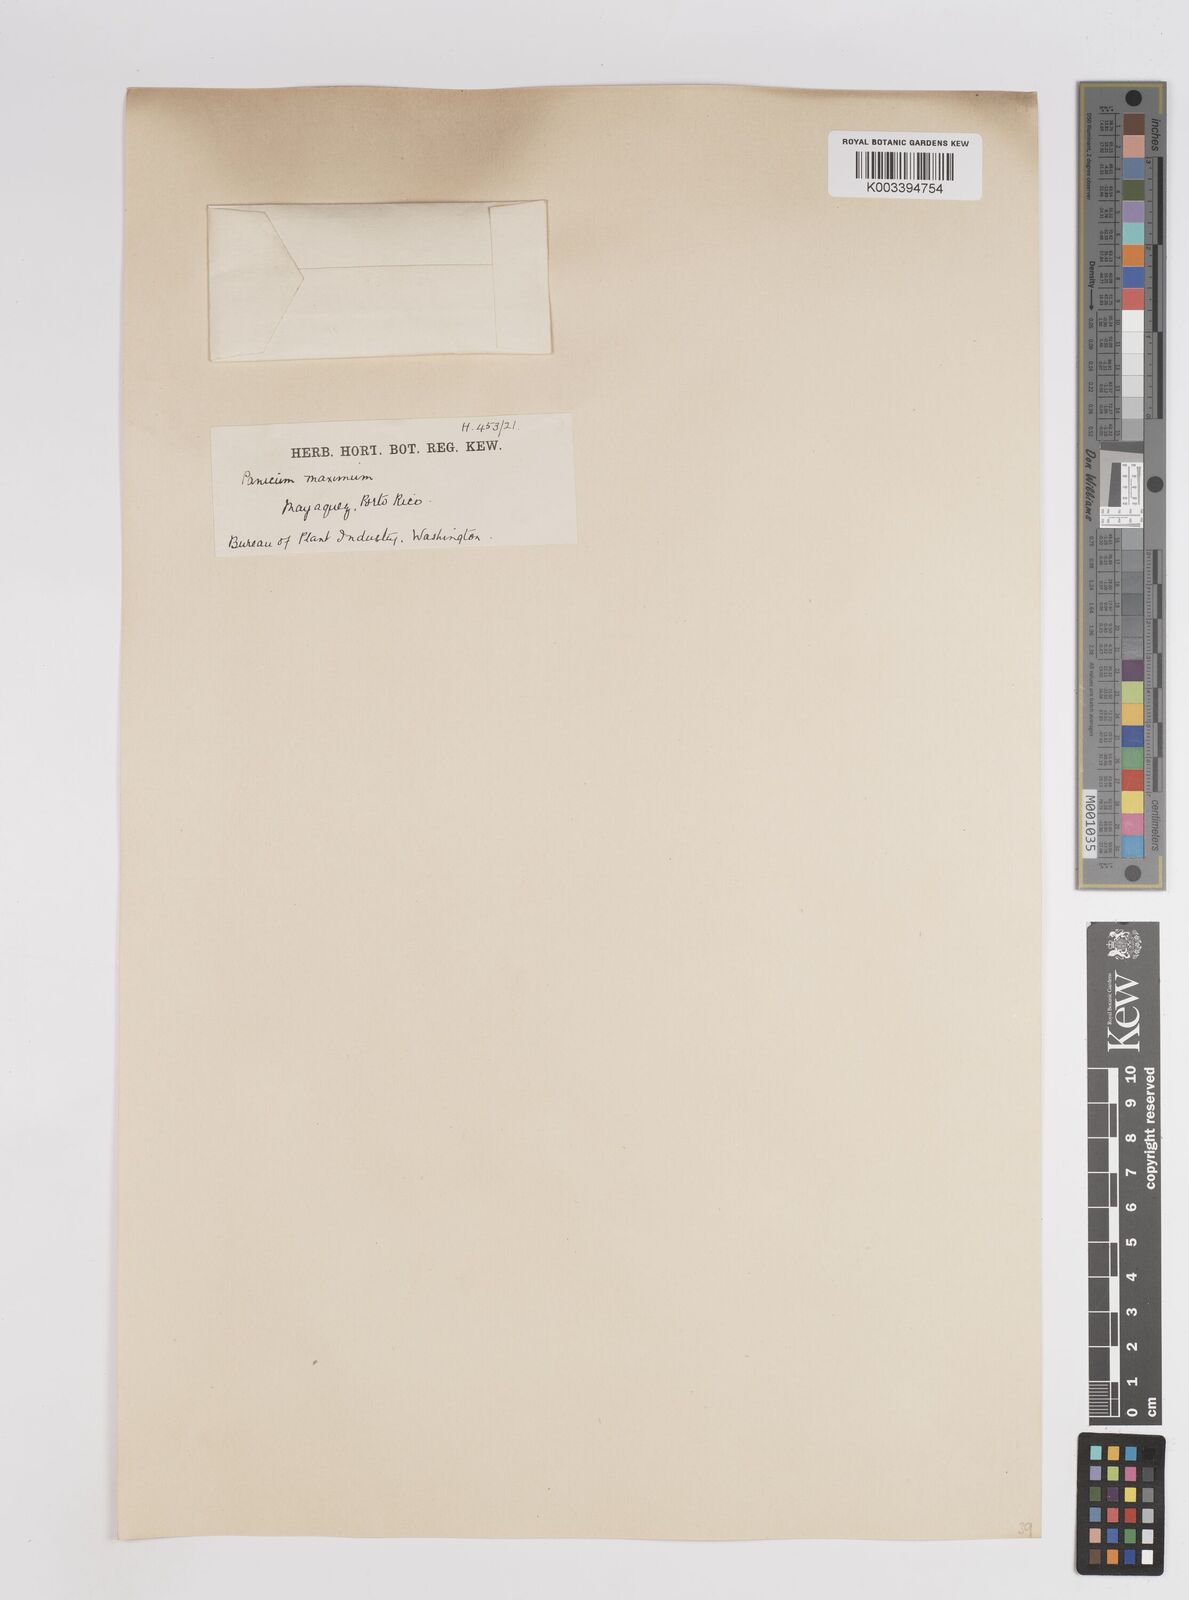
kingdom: Plantae
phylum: Tracheophyta
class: Liliopsida
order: Poales
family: Poaceae
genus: Megathyrsus
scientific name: Megathyrsus maximus
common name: Guineagrass
